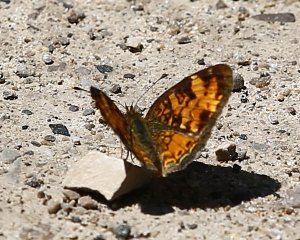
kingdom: Animalia
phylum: Arthropoda
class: Insecta
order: Lepidoptera
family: Nymphalidae
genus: Phyciodes
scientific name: Phyciodes tharos
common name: Pearl Crescent
